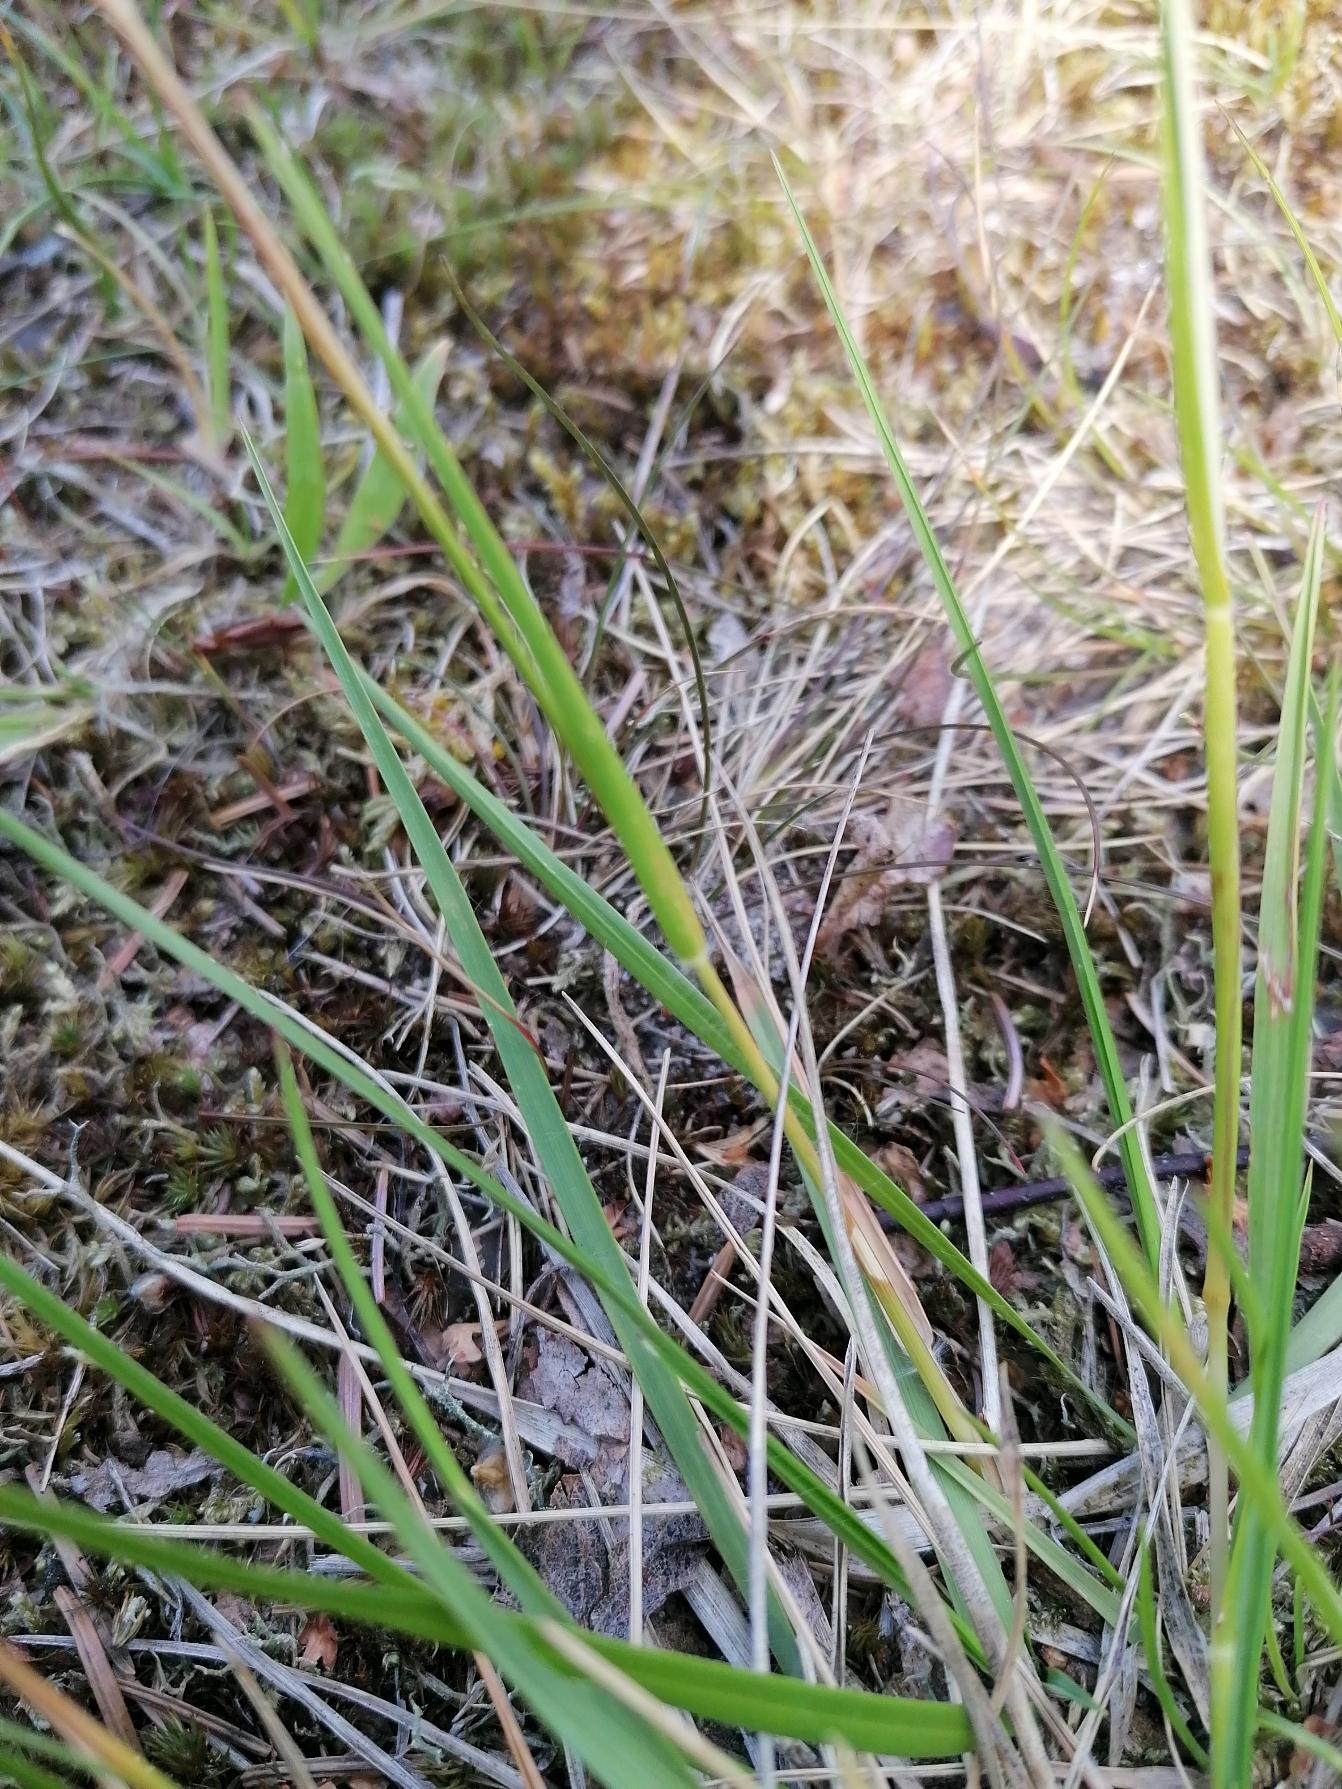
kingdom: Plantae
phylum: Tracheophyta
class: Liliopsida
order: Poales
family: Poaceae
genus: Danthonia
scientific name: Danthonia decumbens
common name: Tandbælg
